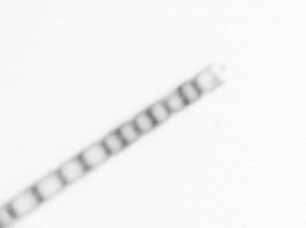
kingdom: Chromista
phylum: Ochrophyta
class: Bacillariophyceae
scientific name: Bacillariophyceae
